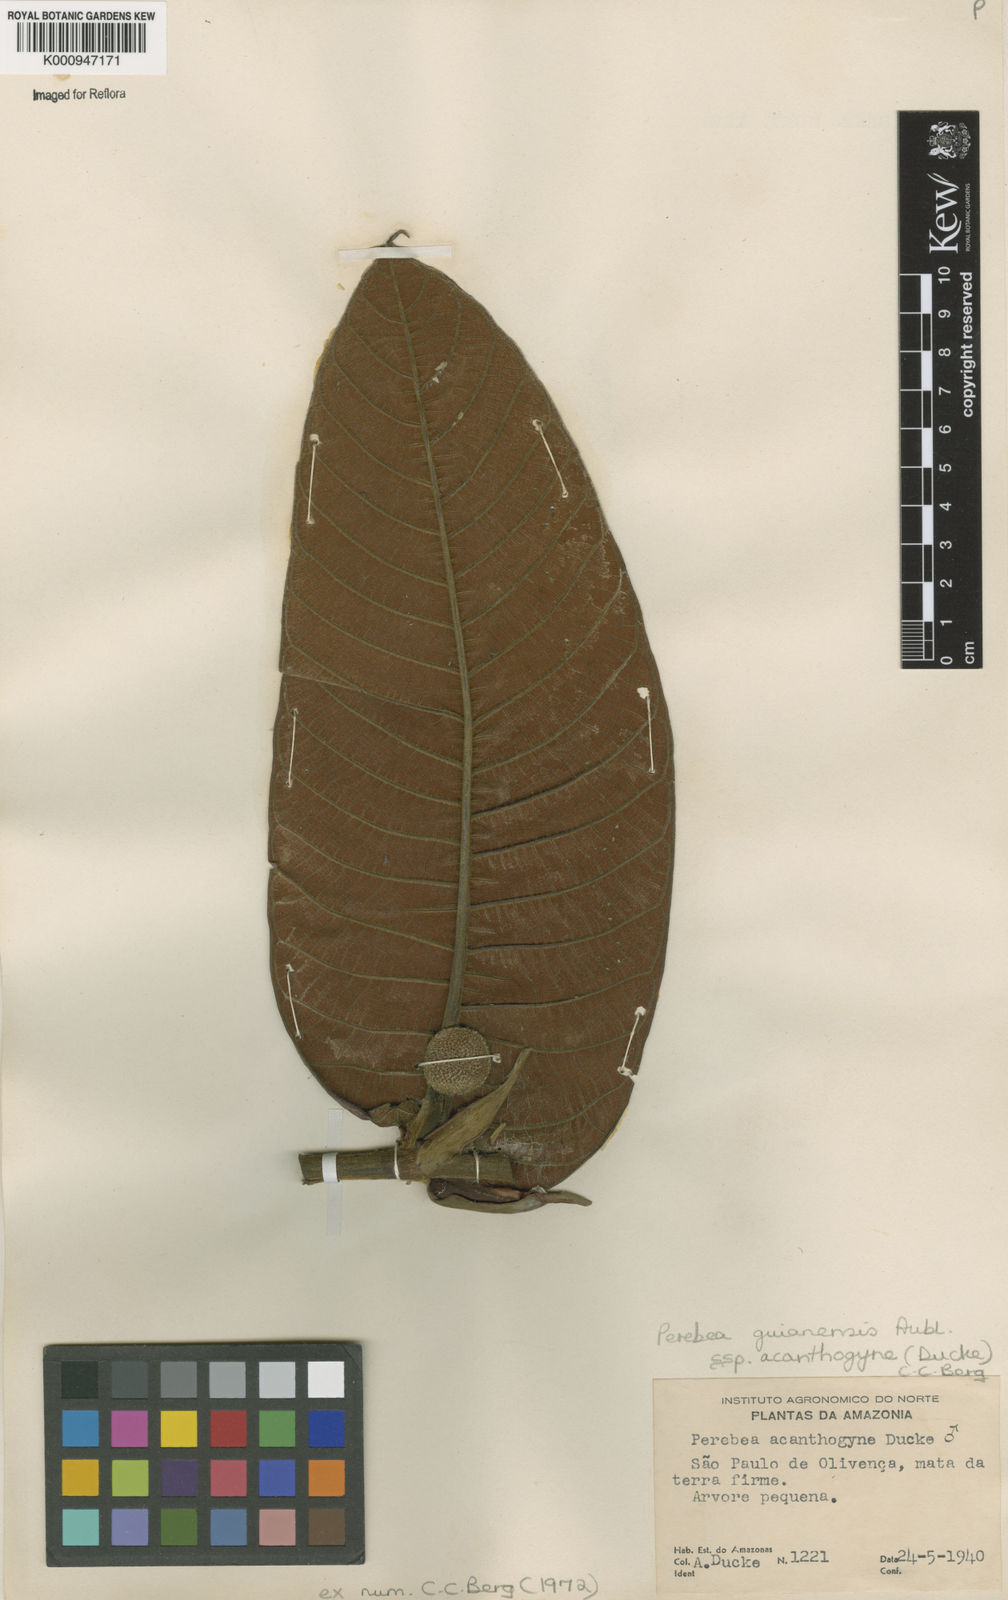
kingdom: Plantae
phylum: Tracheophyta
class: Magnoliopsida
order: Rosales
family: Moraceae
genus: Perebea
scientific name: Perebea guianensis
